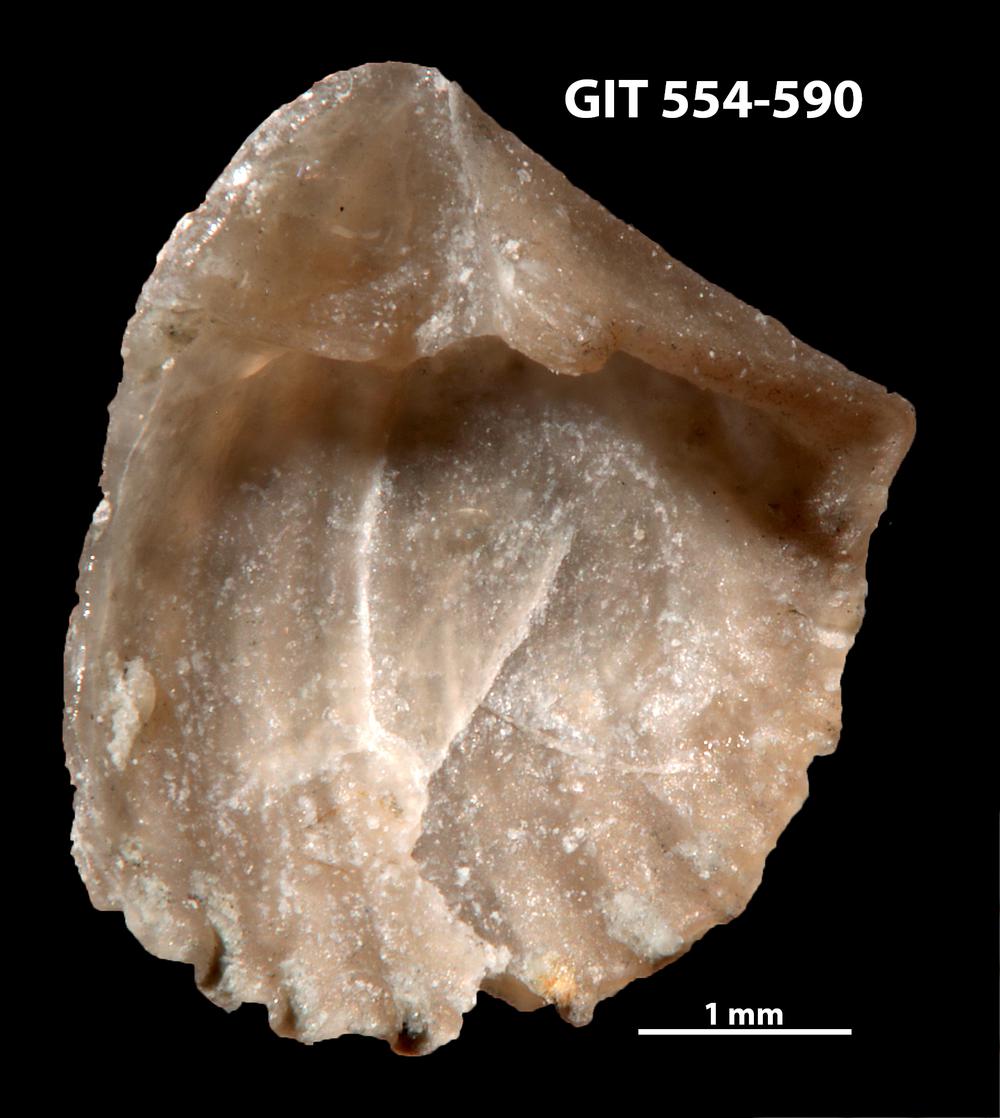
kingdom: Animalia
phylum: Brachiopoda
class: Rhynchonellata
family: Hesperorthidae
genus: Ptychopleurella
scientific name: Ptychopleurella transversa
